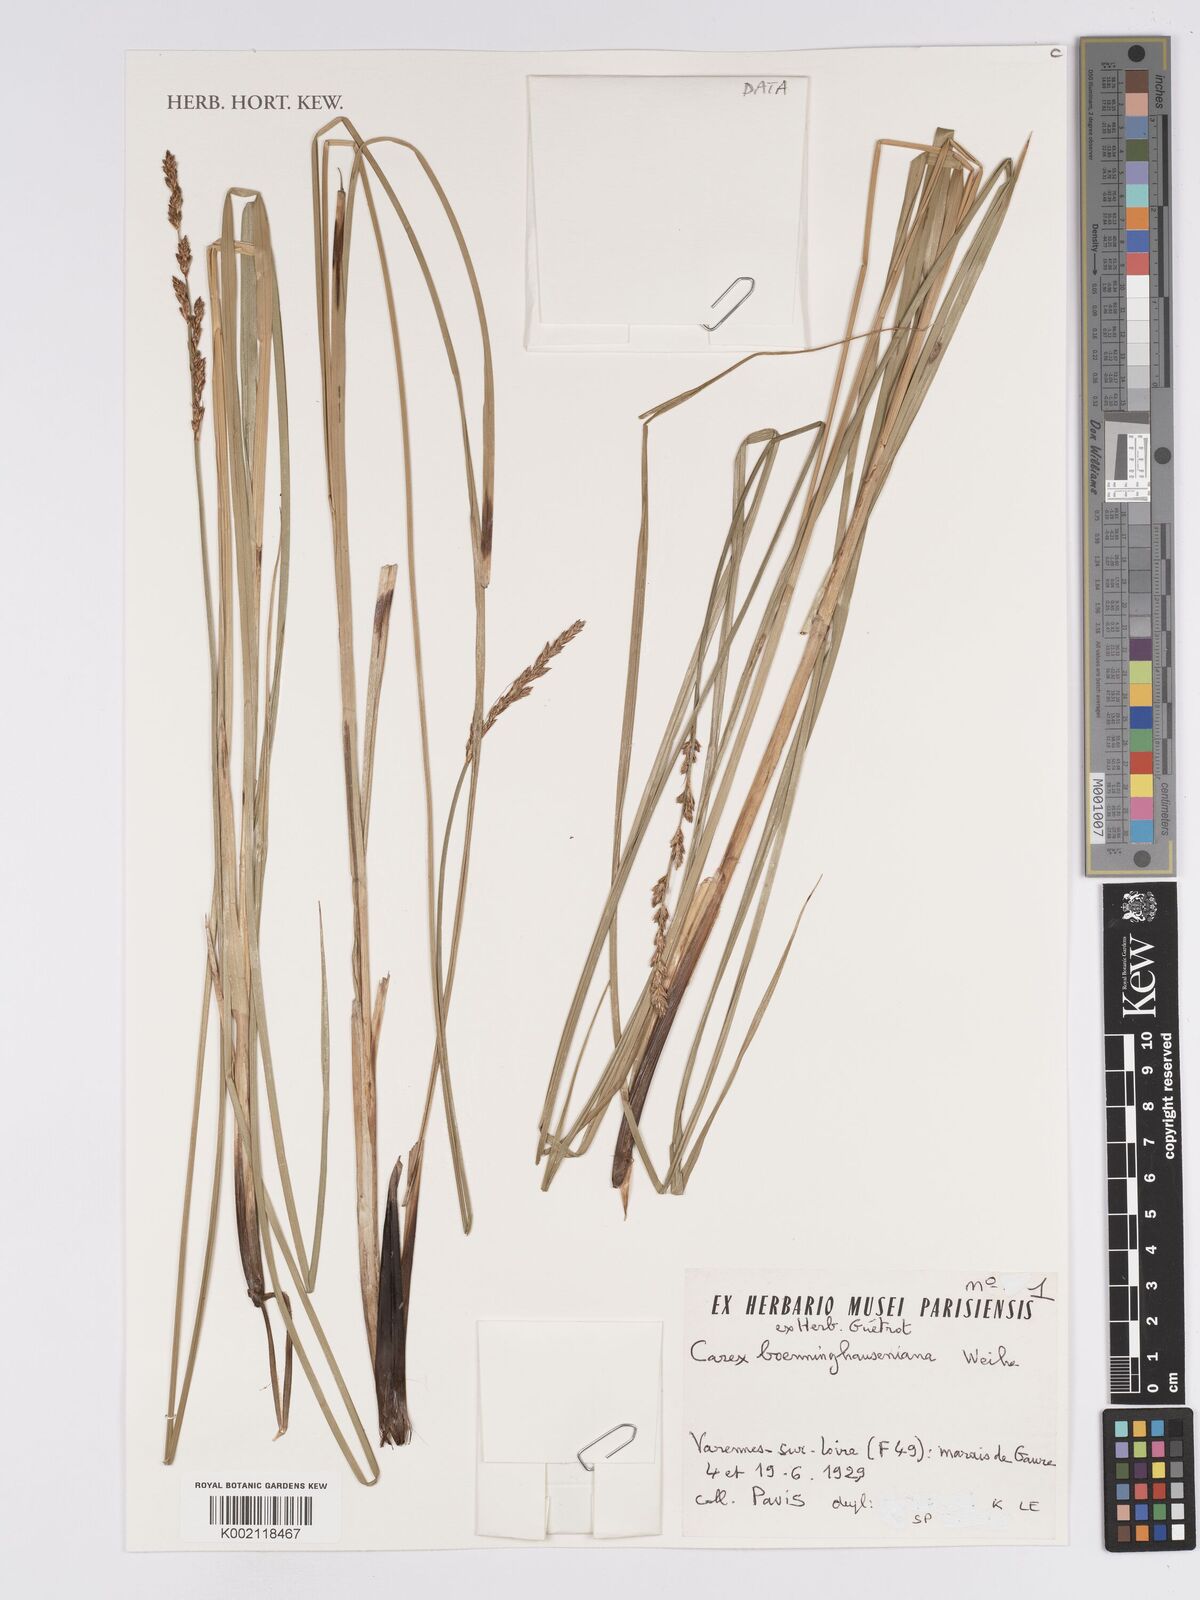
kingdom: Plantae
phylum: Tracheophyta
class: Liliopsida
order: Poales
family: Cyperaceae
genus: Carex
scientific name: Carex boenninghausiana
